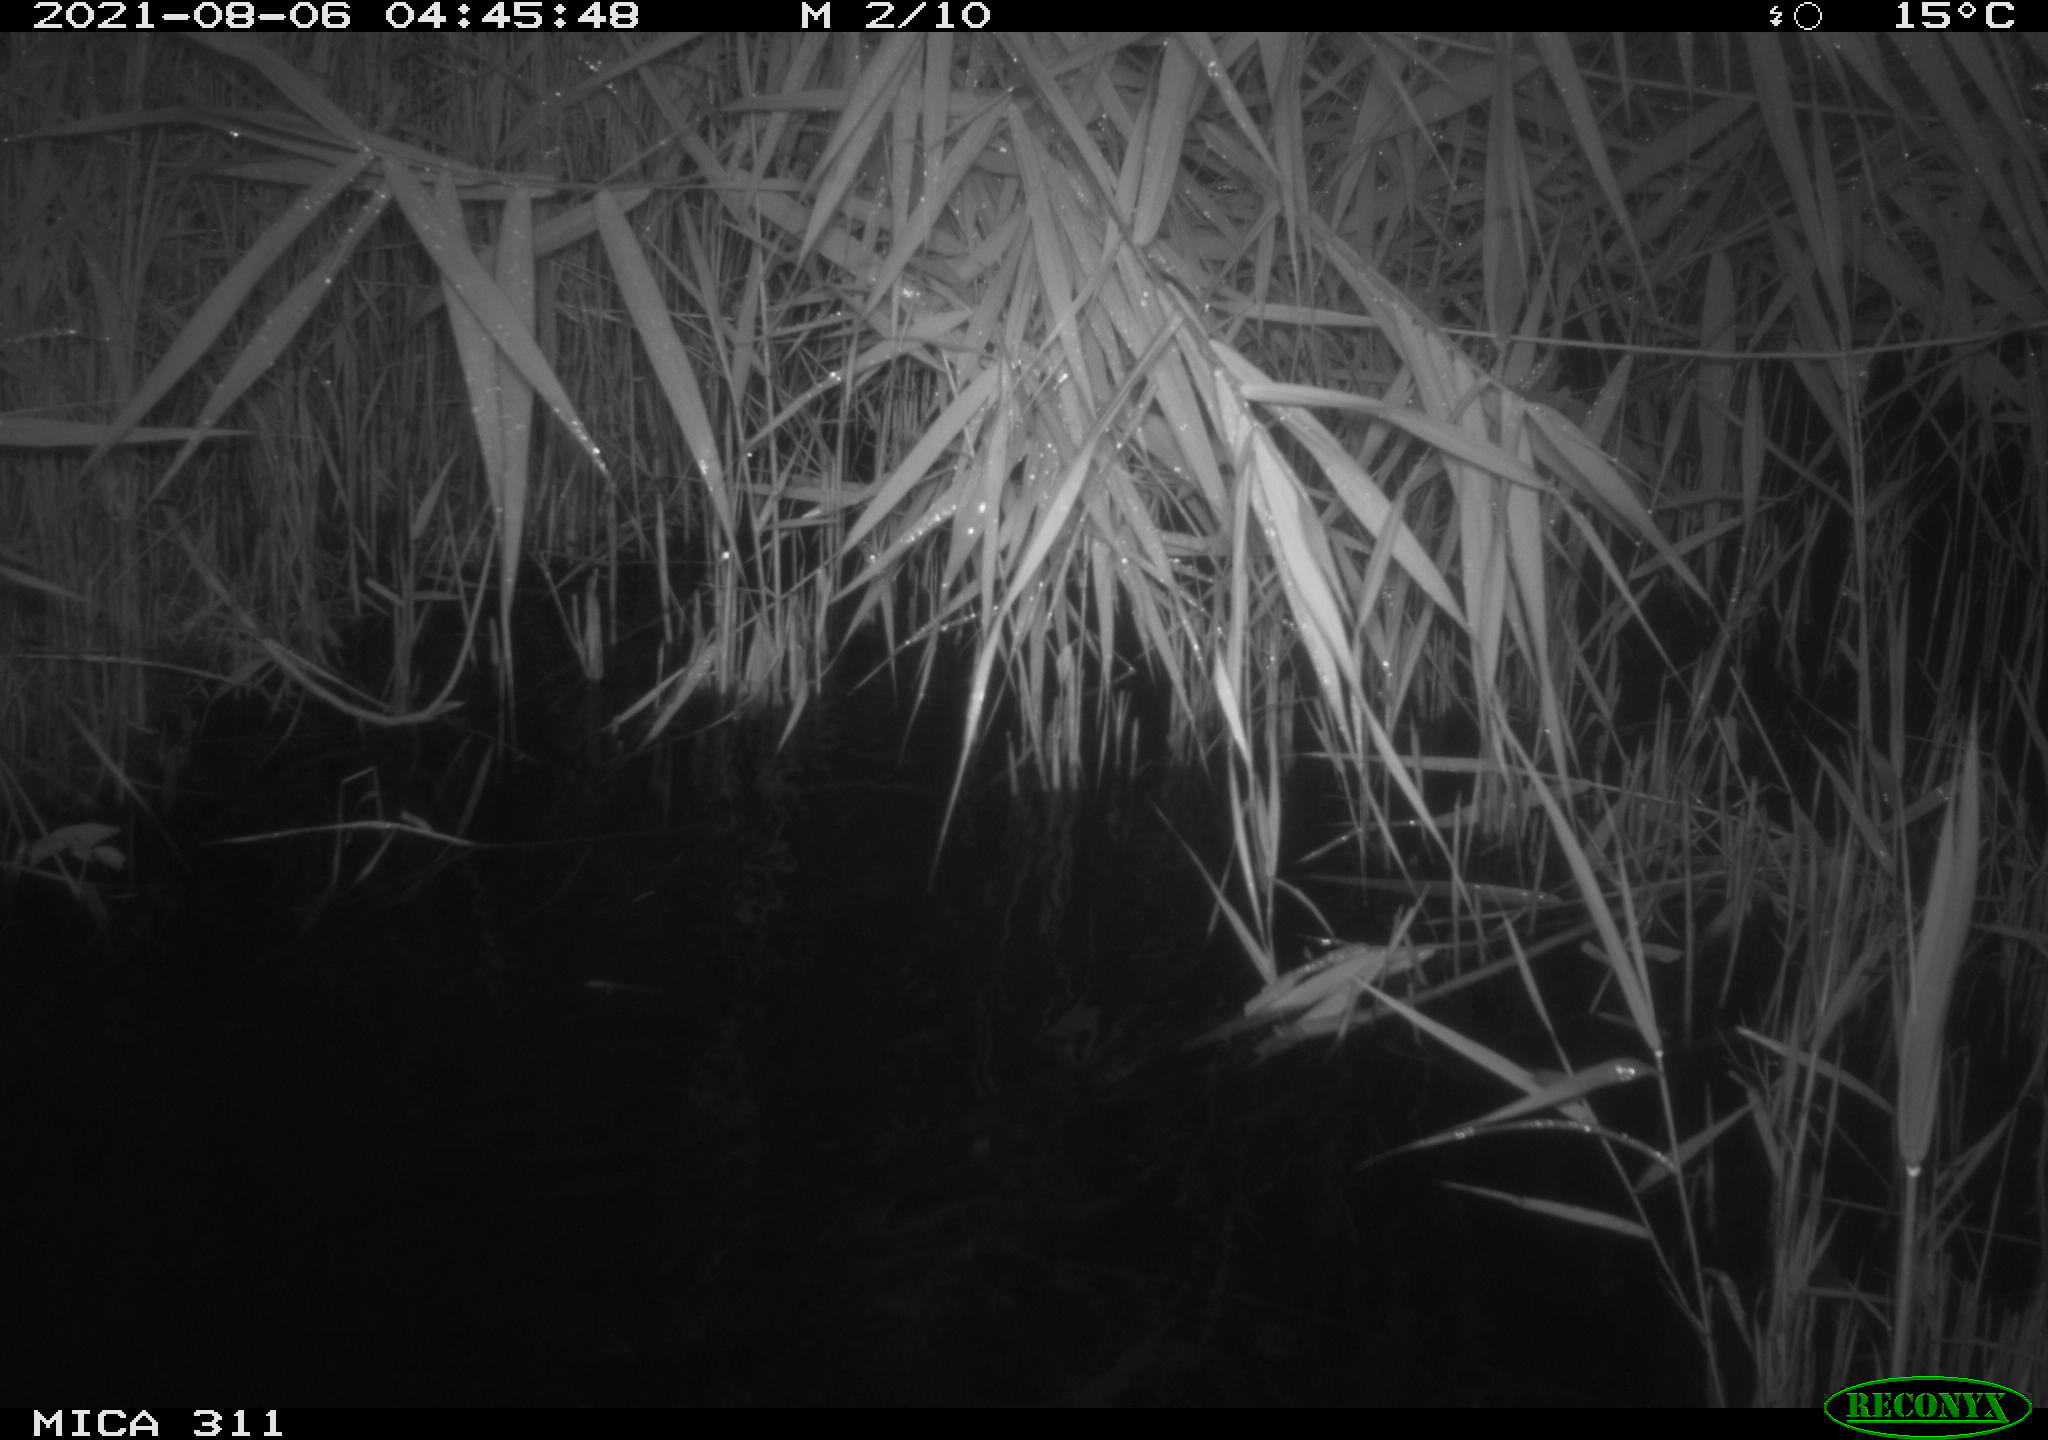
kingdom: Animalia
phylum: Chordata
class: Mammalia
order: Rodentia
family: Muridae
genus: Rattus
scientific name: Rattus norvegicus
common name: Brown rat
